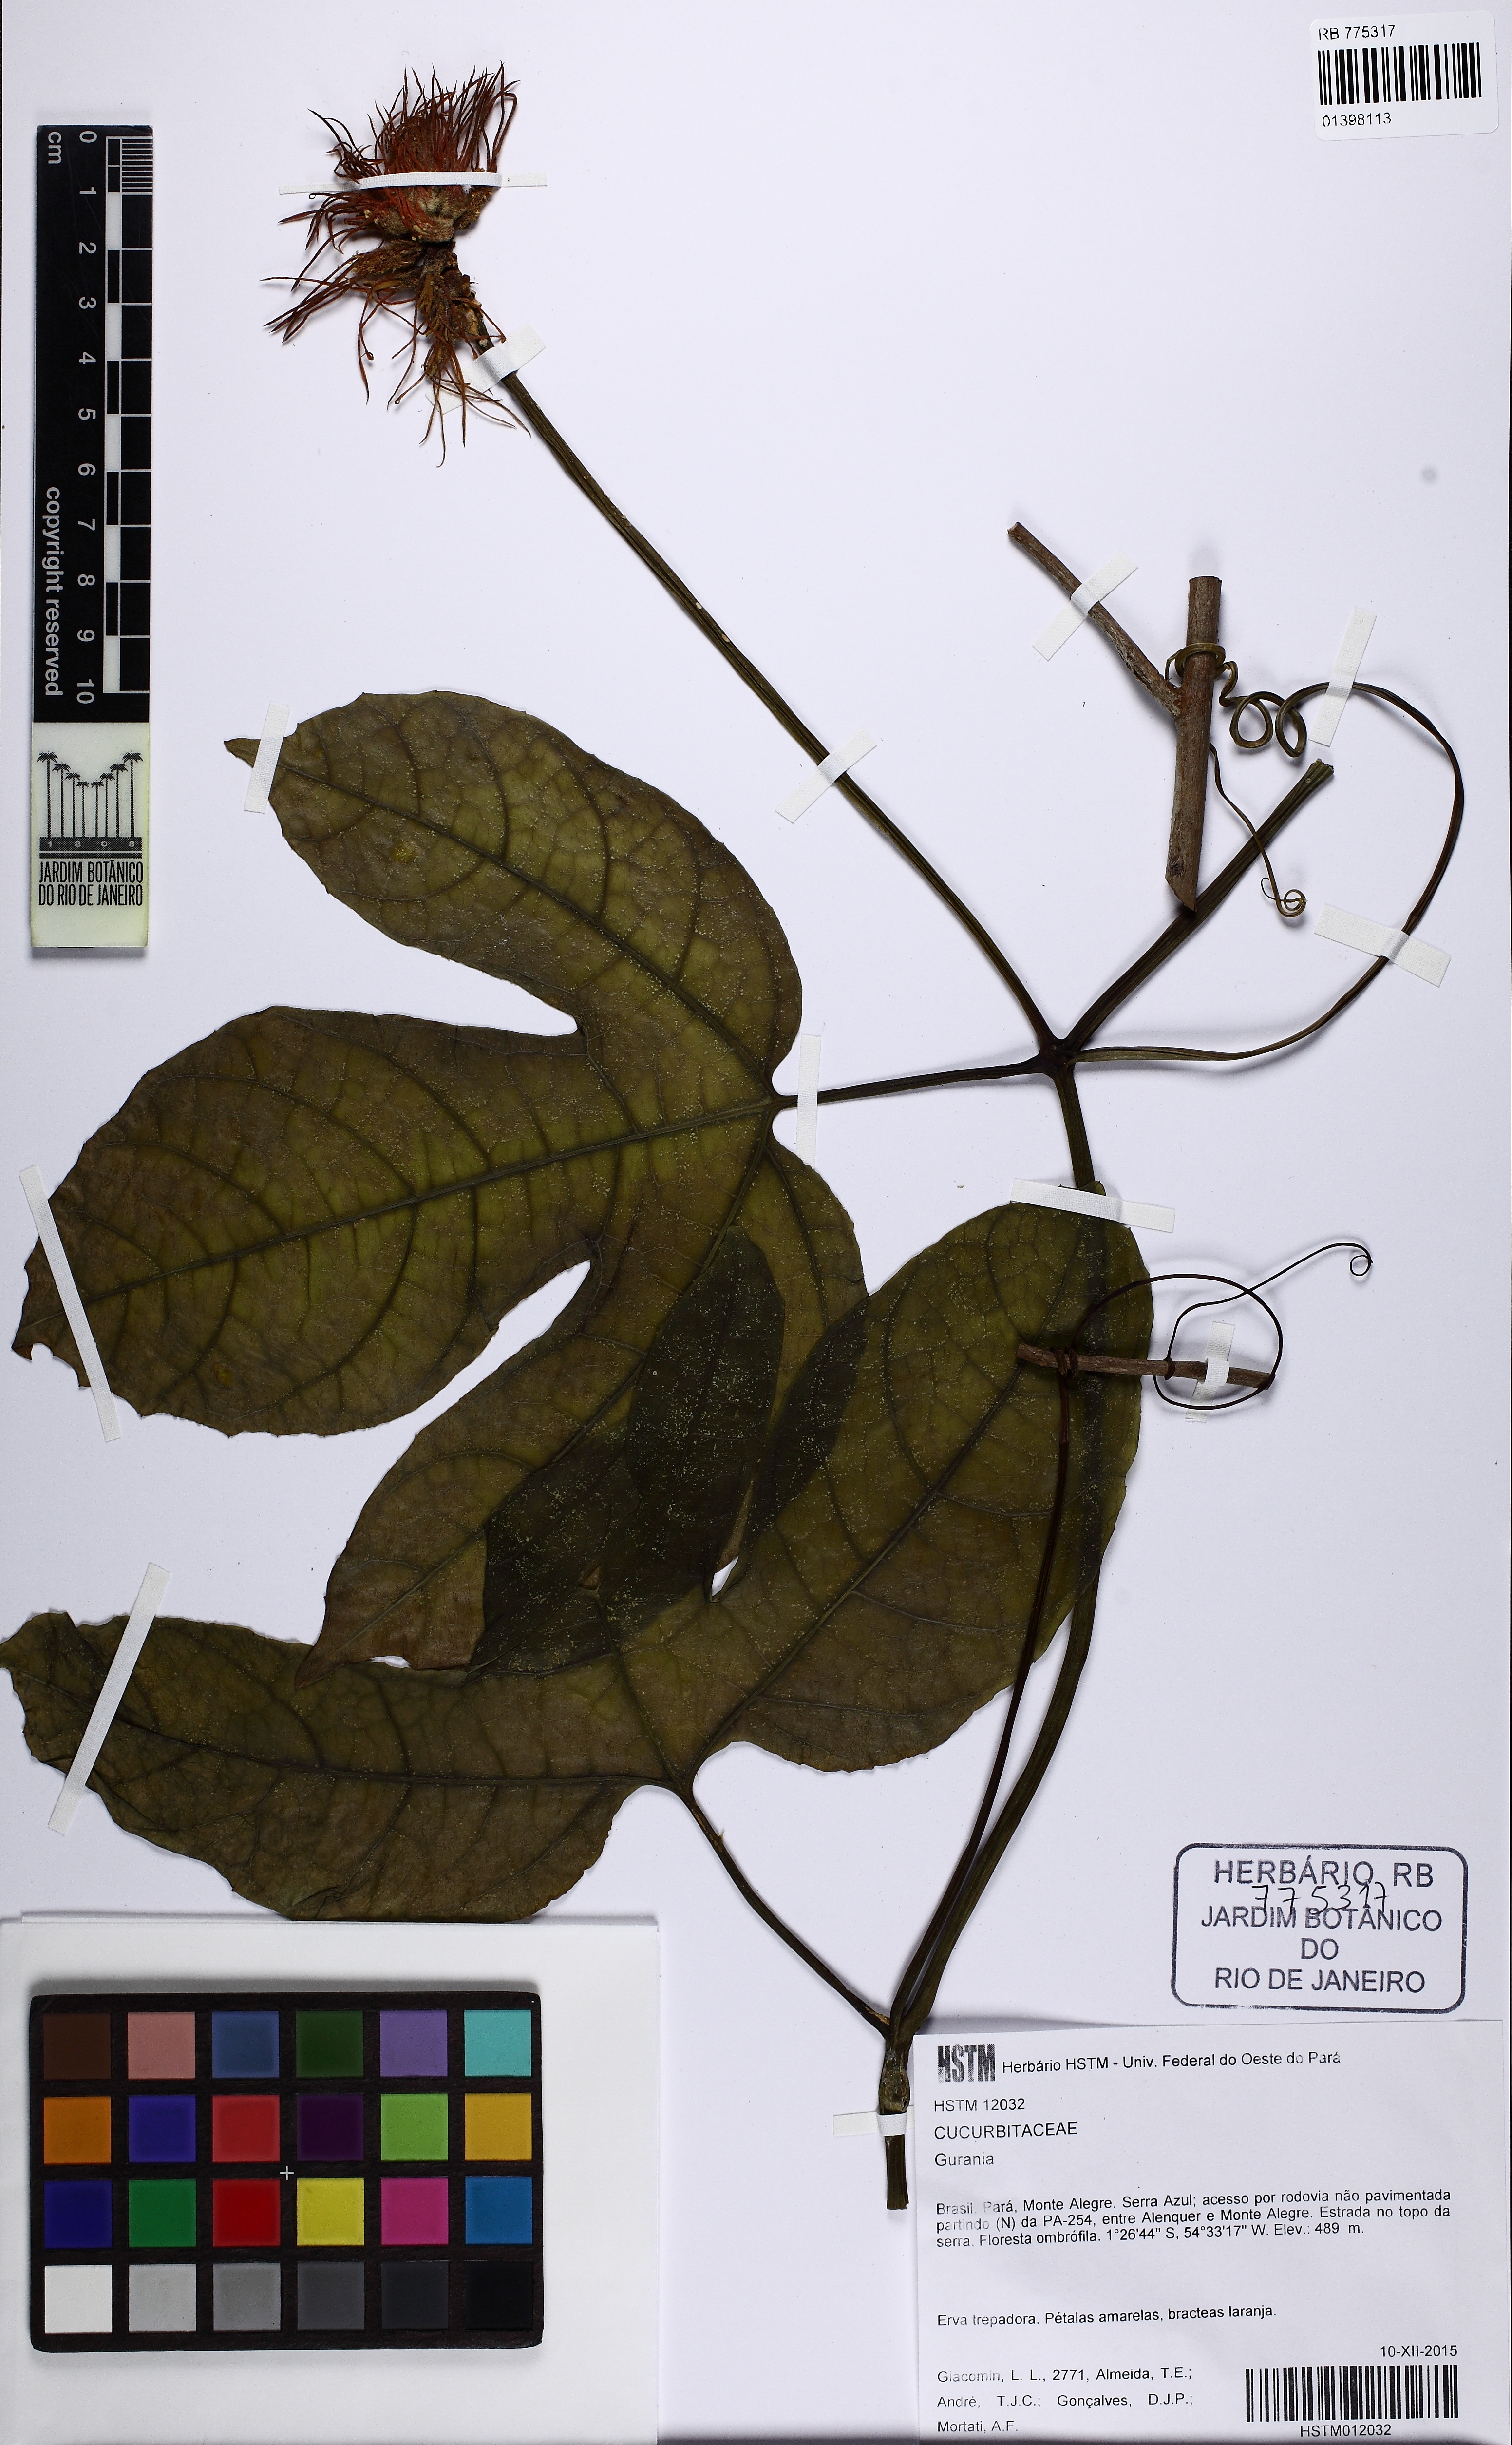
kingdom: Plantae
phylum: Tracheophyta
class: Magnoliopsida
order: Cucurbitales
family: Cucurbitaceae
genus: Gurania
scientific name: Gurania
